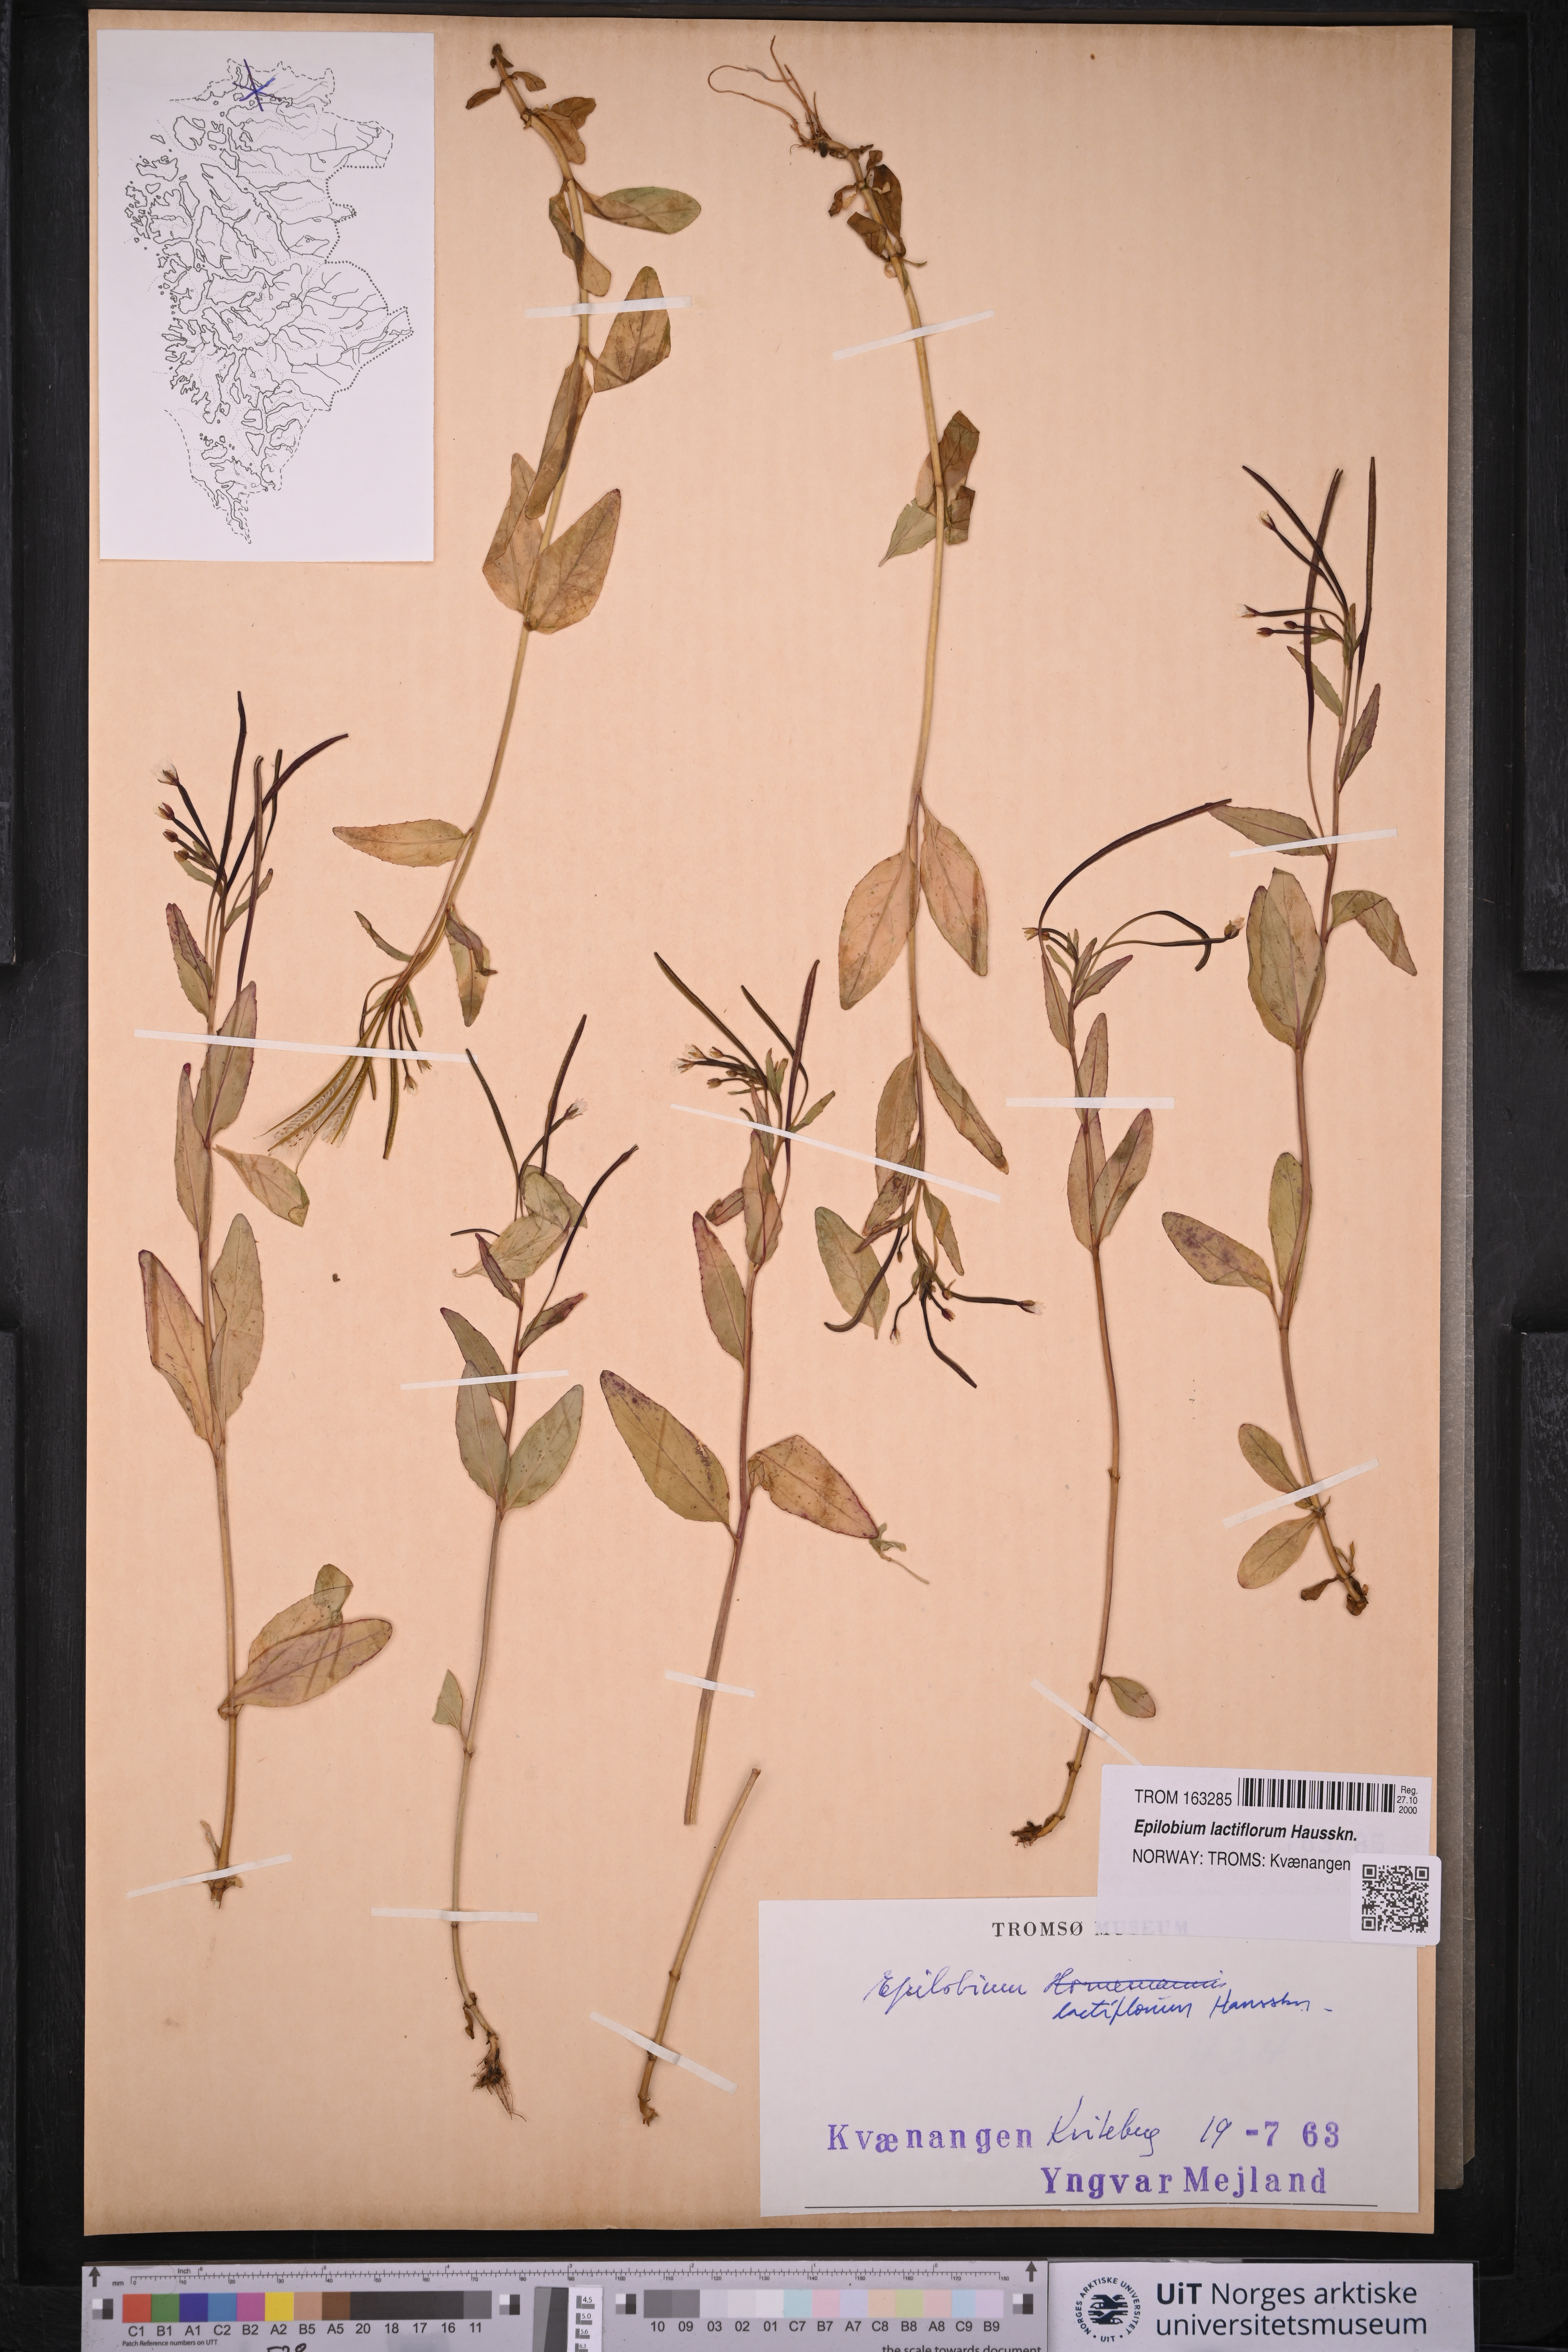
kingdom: Plantae
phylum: Tracheophyta
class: Magnoliopsida
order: Myrtales
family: Onagraceae
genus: Epilobium
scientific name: Epilobium lactiflorum
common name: Milkflower willowherb
